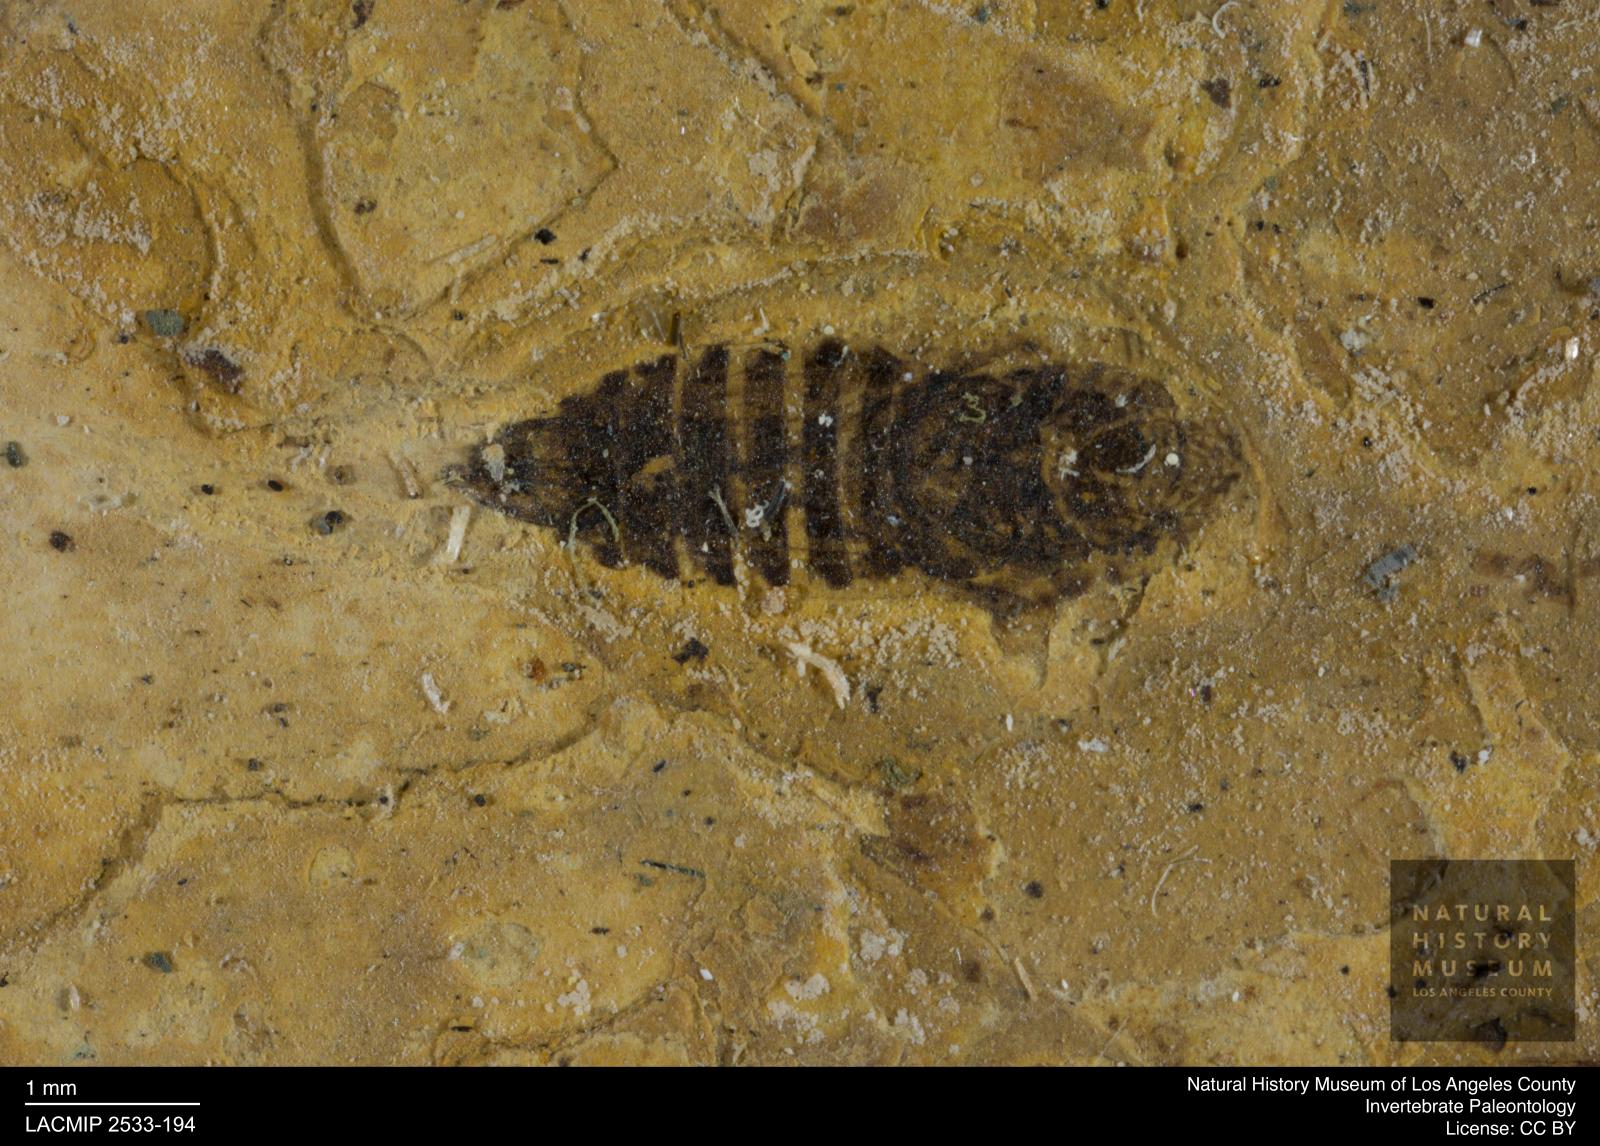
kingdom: Animalia
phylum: Arthropoda
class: Insecta
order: Hemiptera
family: Cicadellidae
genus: Thamnotettix
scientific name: Thamnotettix gracilentus
